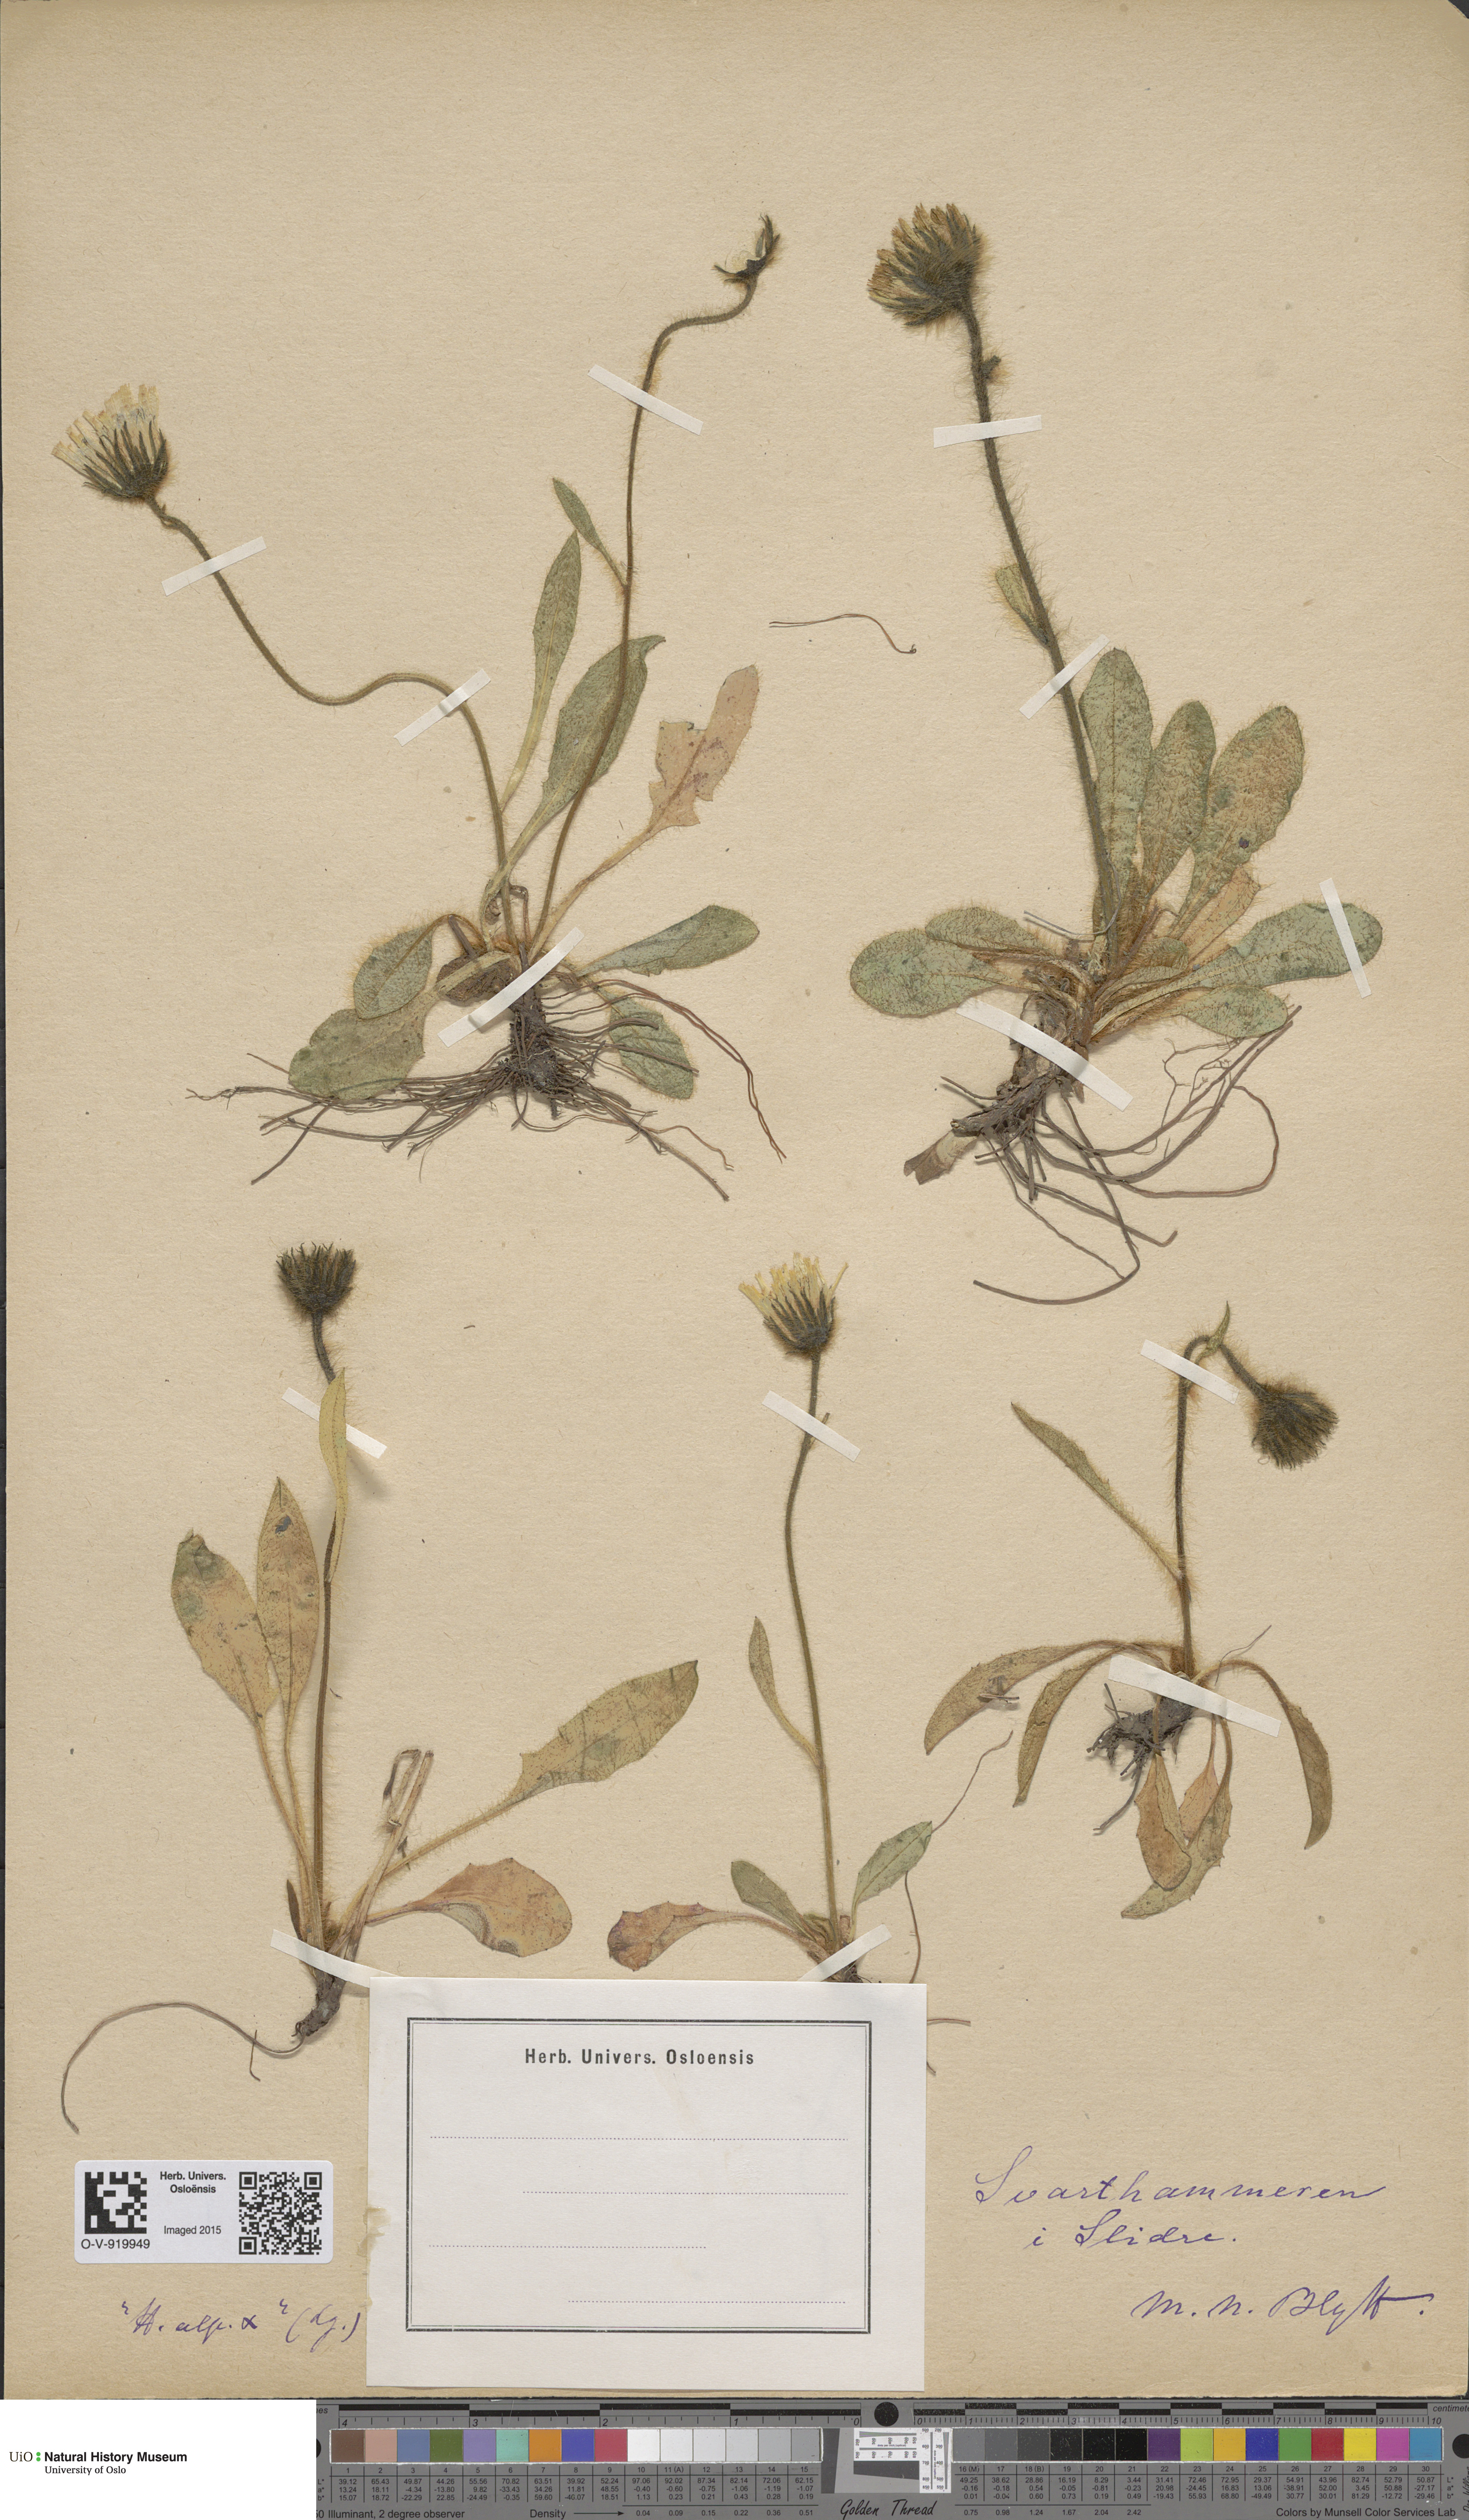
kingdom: Plantae
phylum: Tracheophyta
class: Magnoliopsida
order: Asterales
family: Asteraceae
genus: Hieracium
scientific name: Hieracium alpinum
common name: Alpine hawkweed
